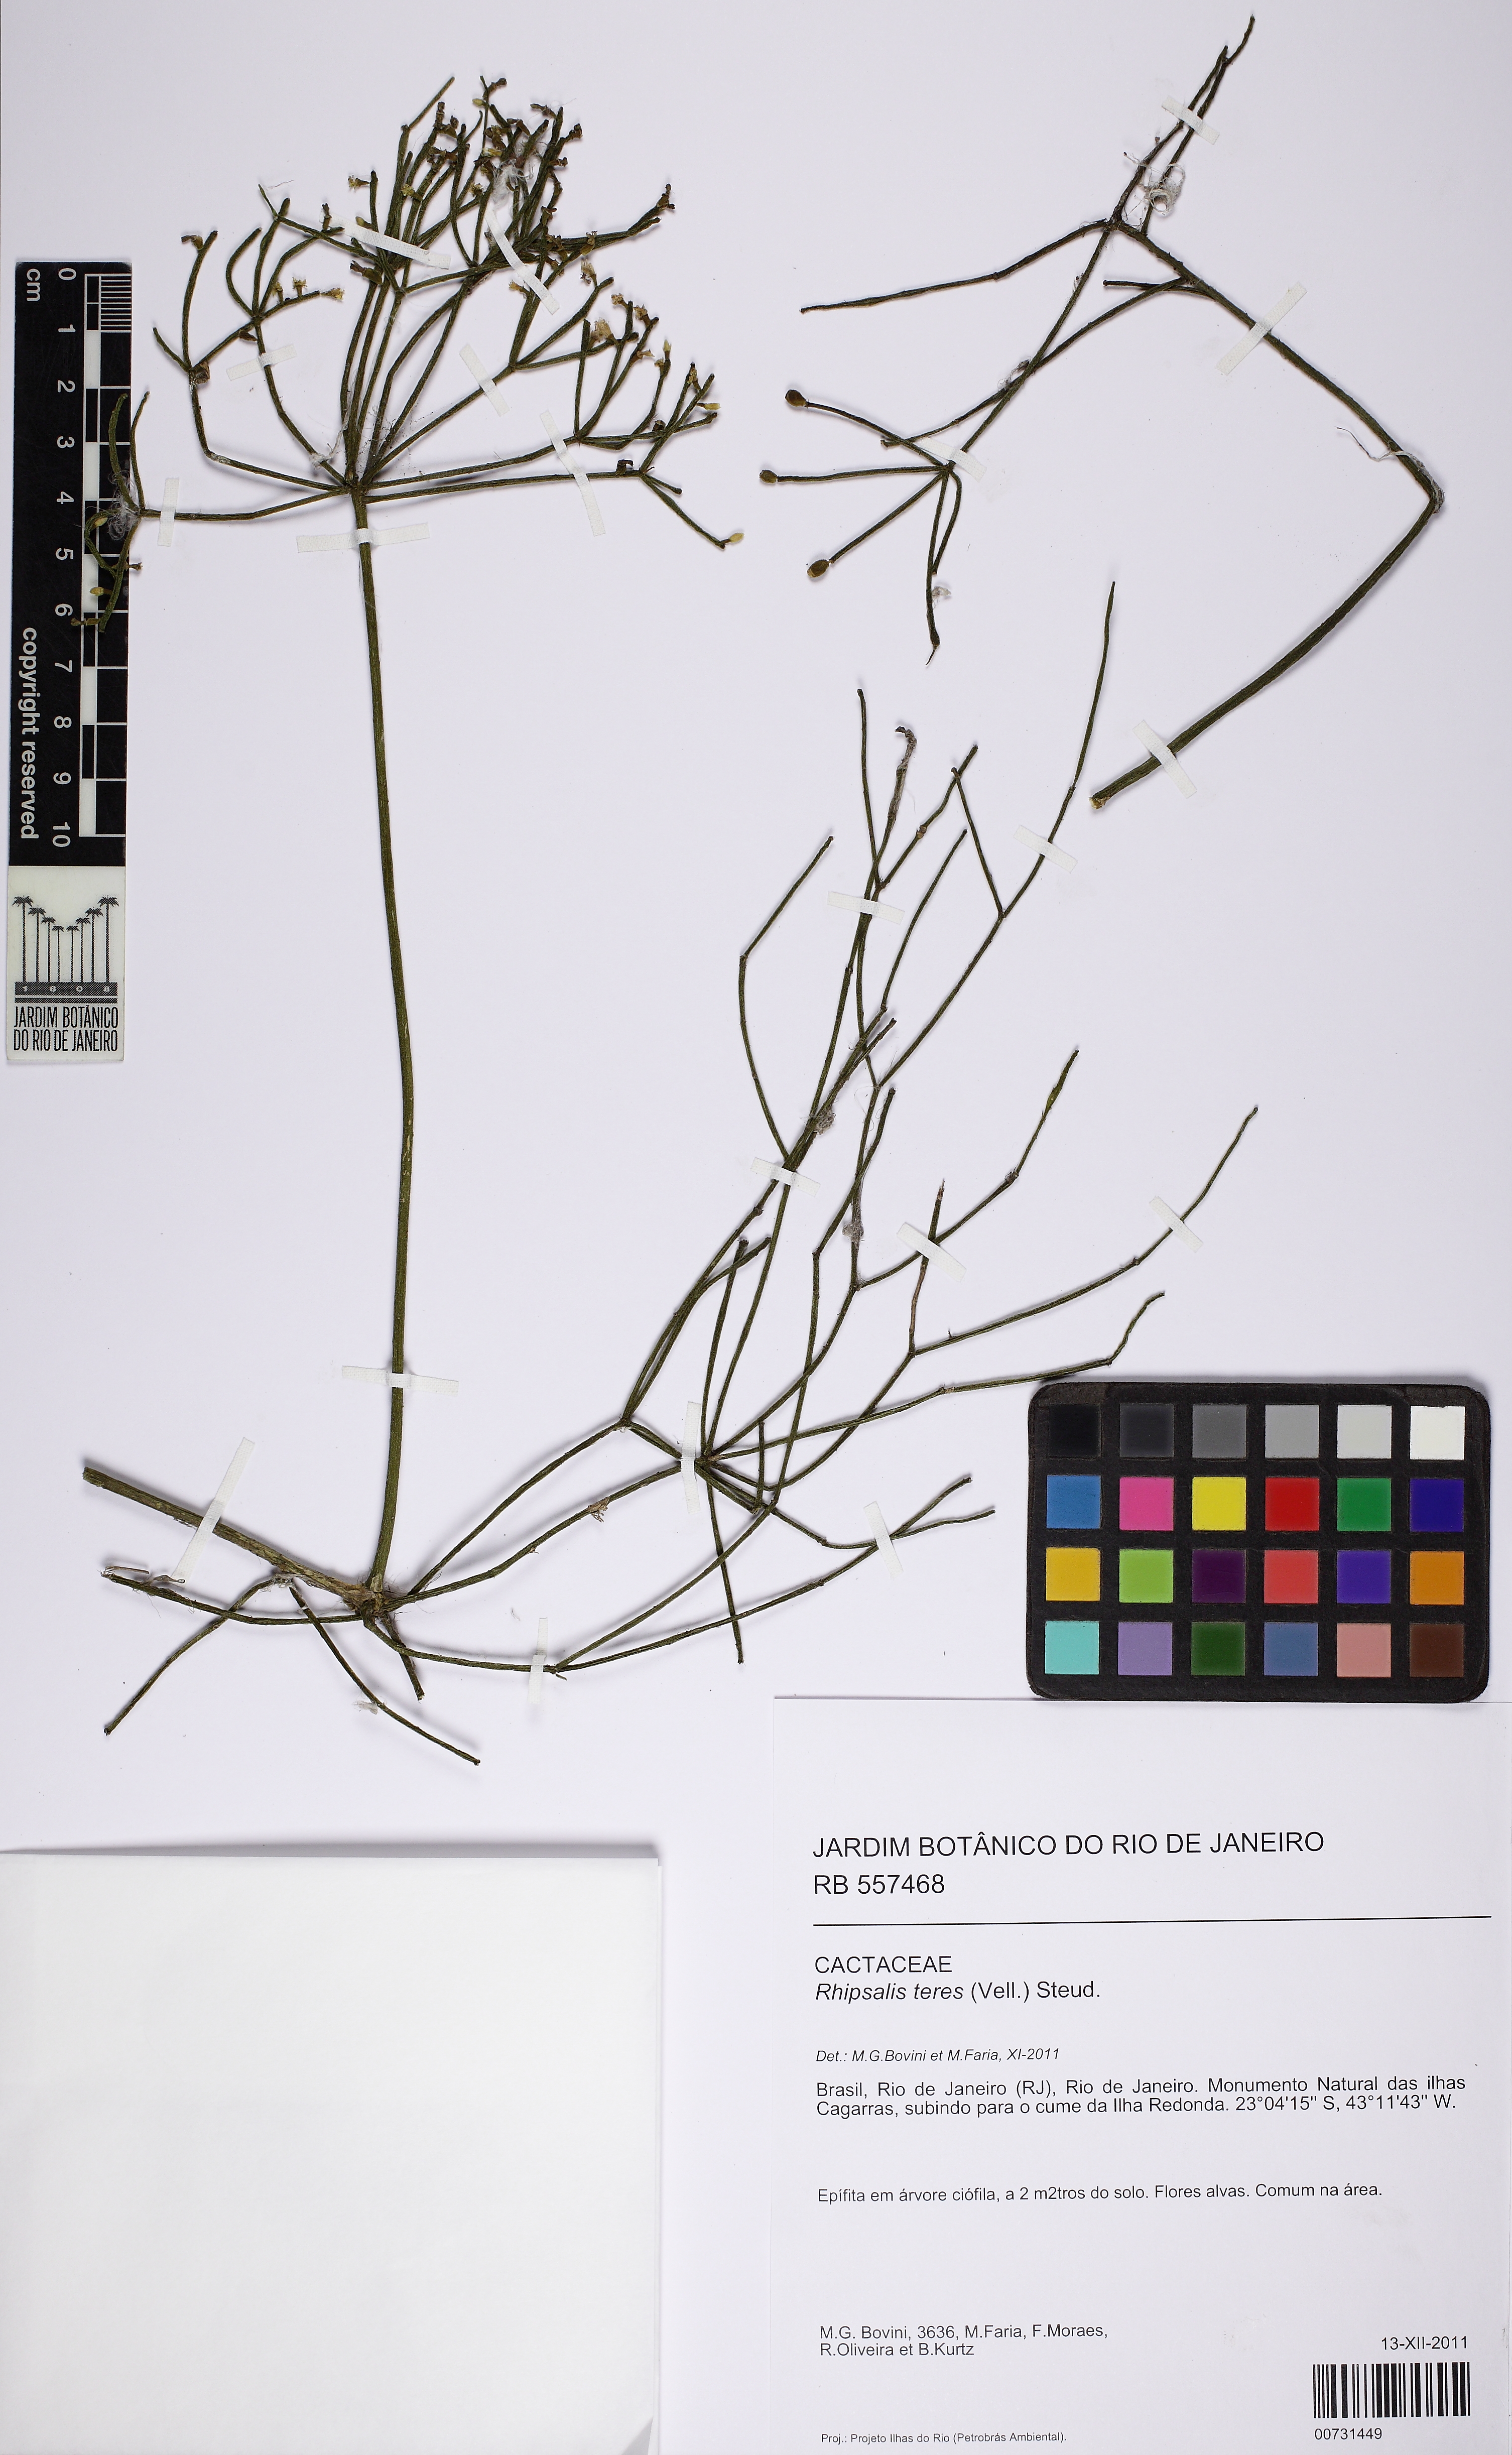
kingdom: Plantae
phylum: Tracheophyta
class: Magnoliopsida
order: Caryophyllales
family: Cactaceae
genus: Rhipsalis
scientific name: Rhipsalis teres
